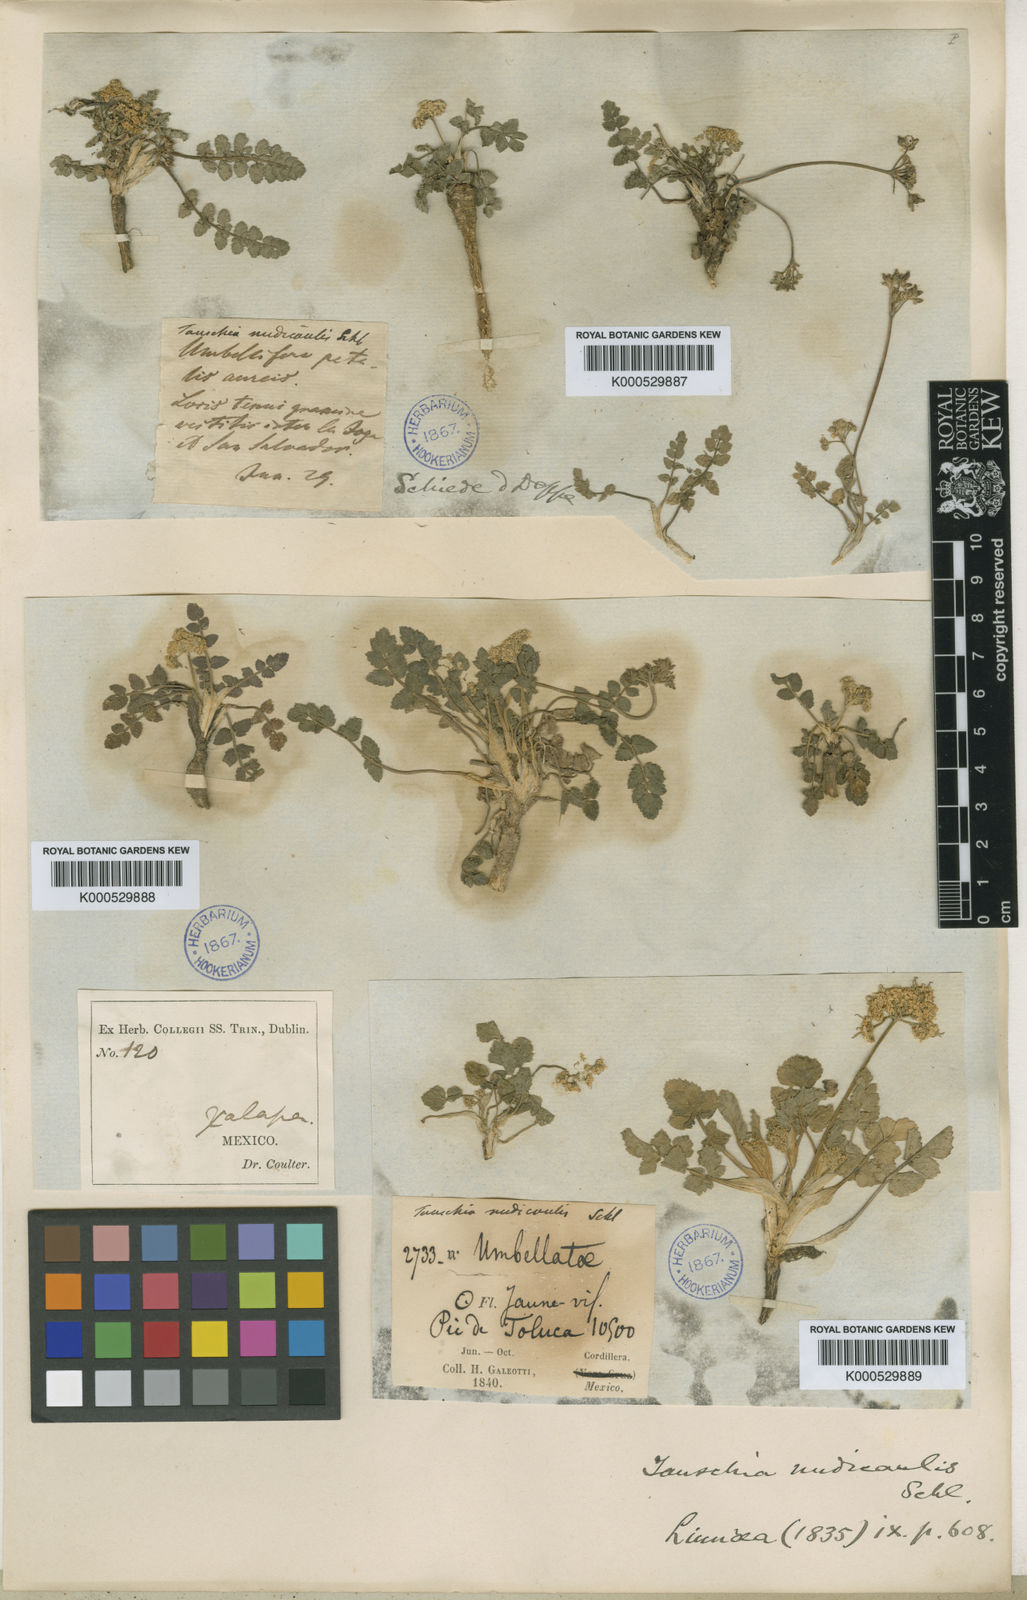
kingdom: Plantae
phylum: Tracheophyta
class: Magnoliopsida
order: Apiales
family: Apiaceae
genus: Tauschia
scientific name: Tauschia nudicaulis
